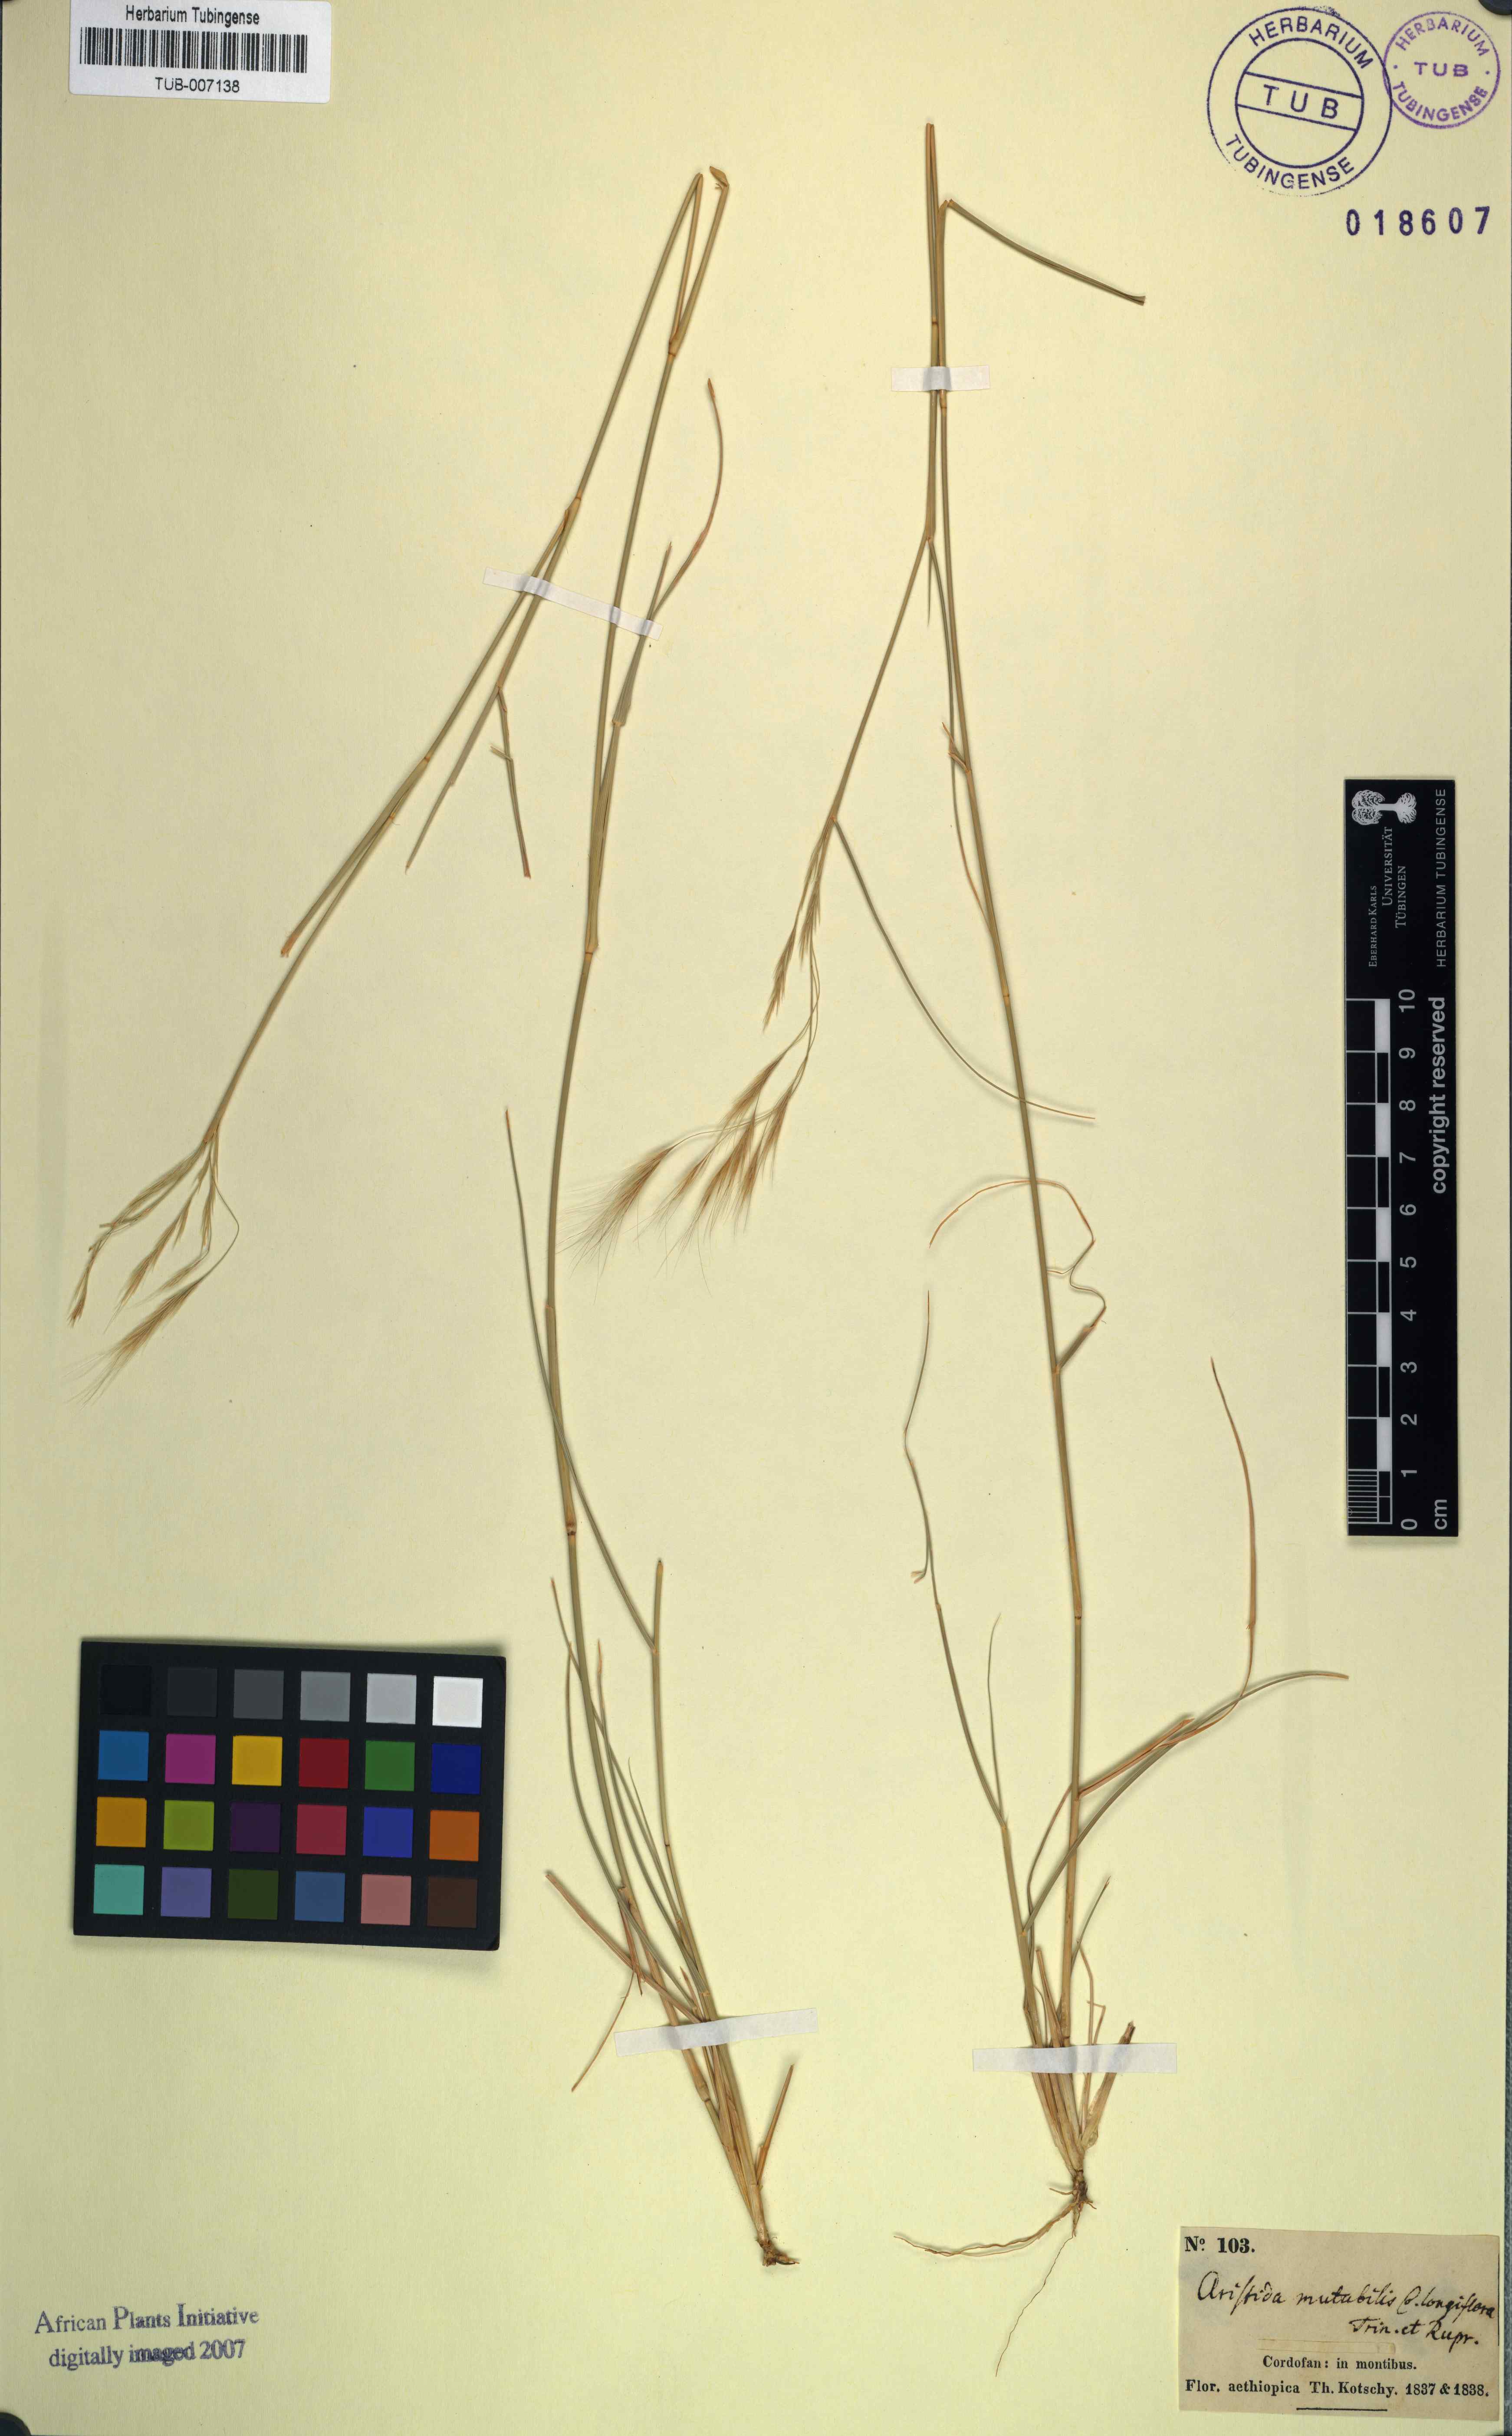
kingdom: Plantae
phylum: Tracheophyta
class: Liliopsida
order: Poales
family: Poaceae
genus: Aristida
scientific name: Aristida mutabilis
